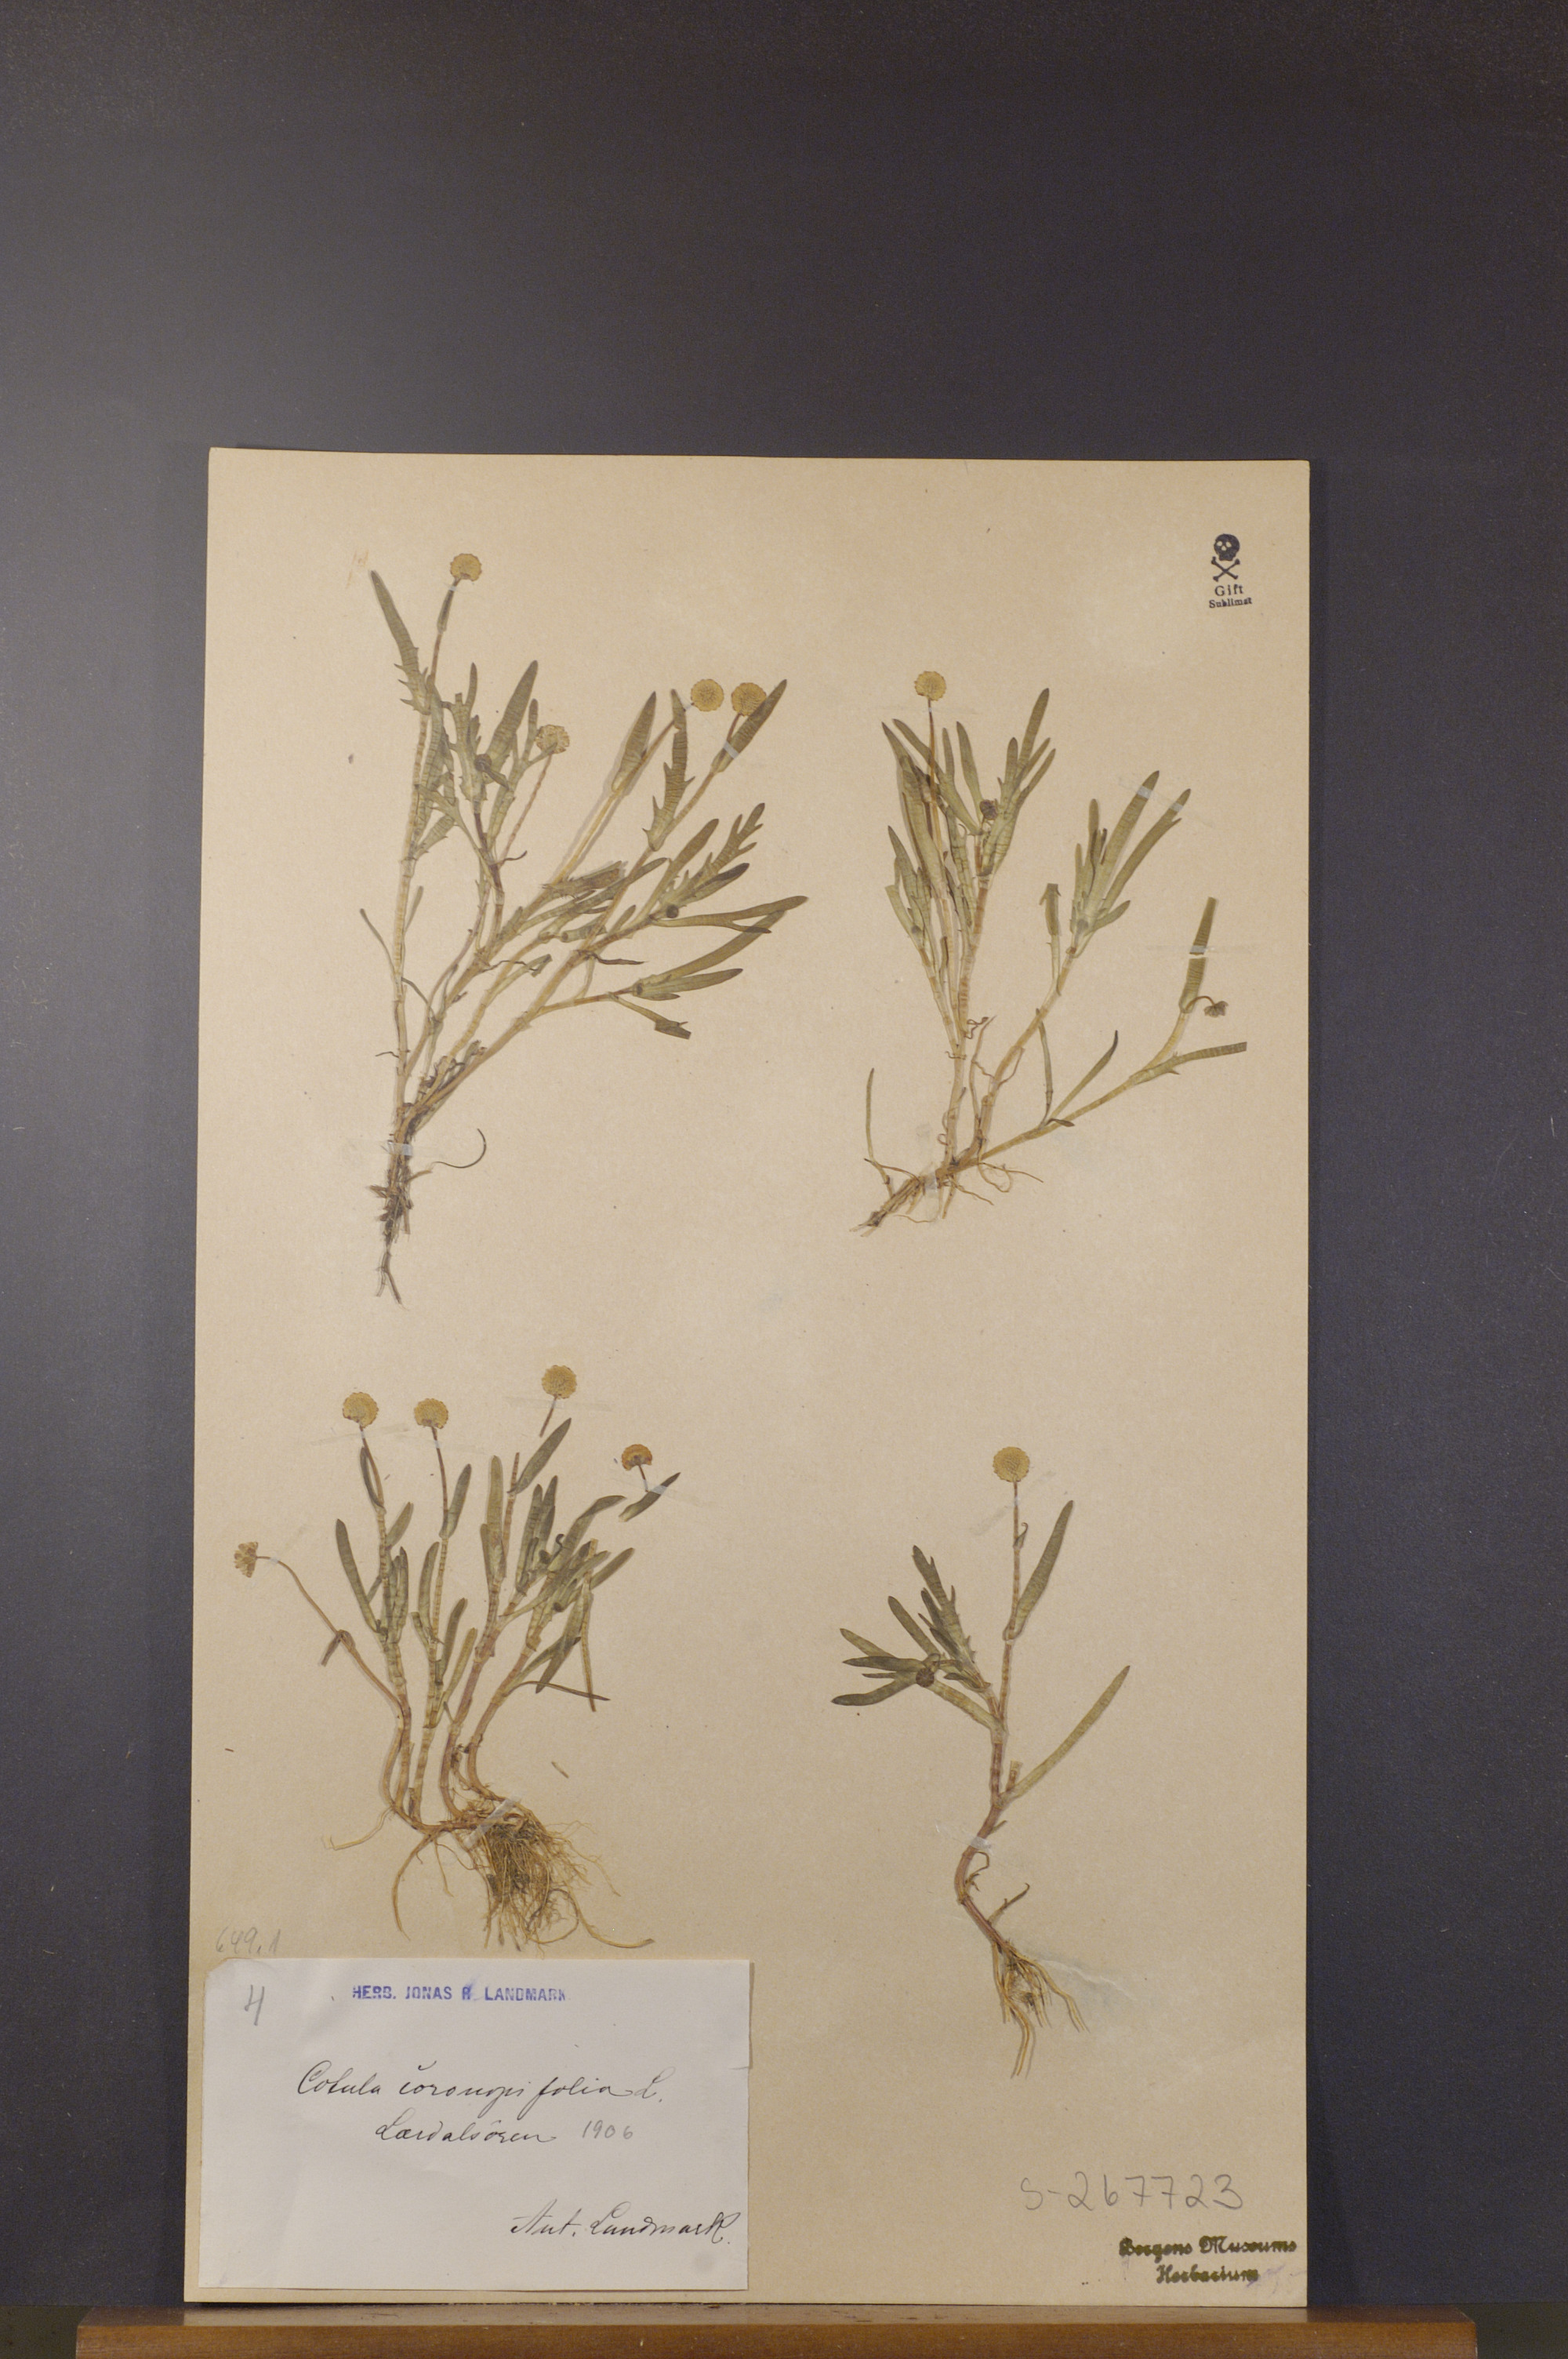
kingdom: Plantae
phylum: Tracheophyta
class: Magnoliopsida
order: Asterales
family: Asteraceae
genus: Cotula
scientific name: Cotula coronopifolia
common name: Buttonweed
